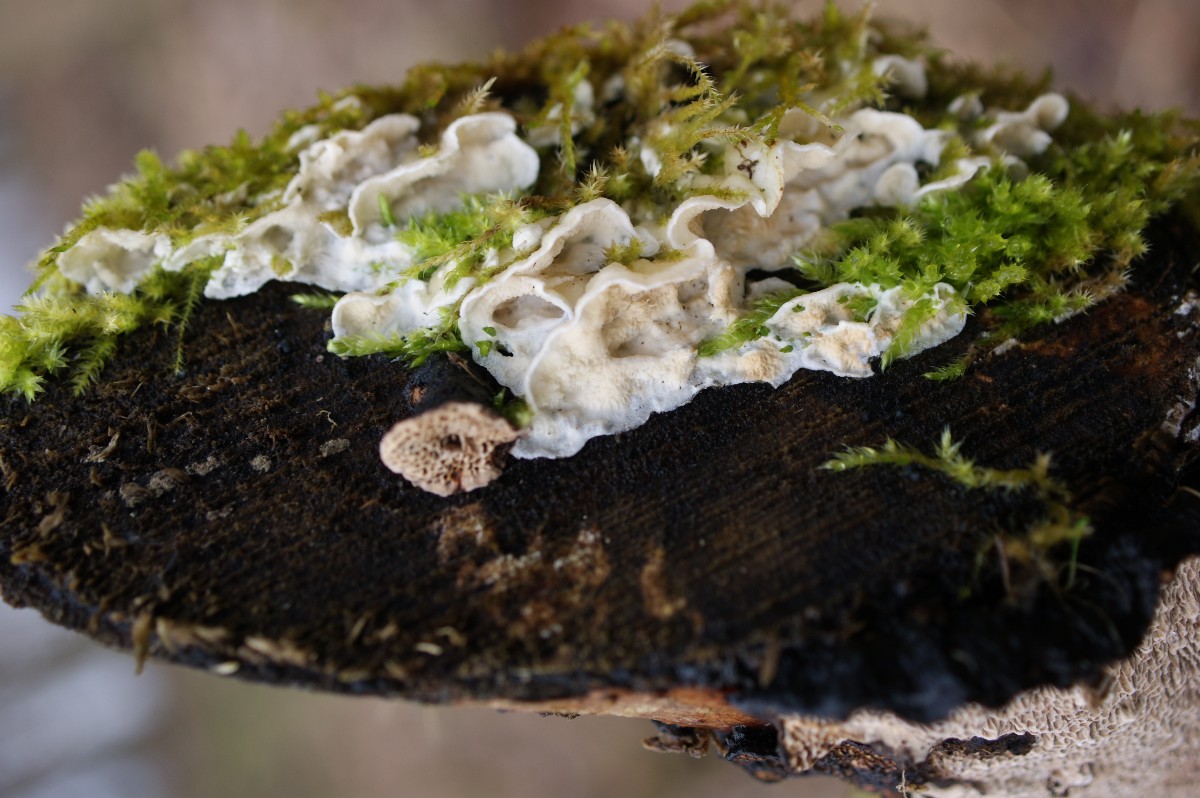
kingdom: Fungi
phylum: Basidiomycota
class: Agaricomycetes
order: Polyporales
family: Irpicaceae
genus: Byssomerulius
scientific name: Byssomerulius corium
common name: læder-åresvamp
